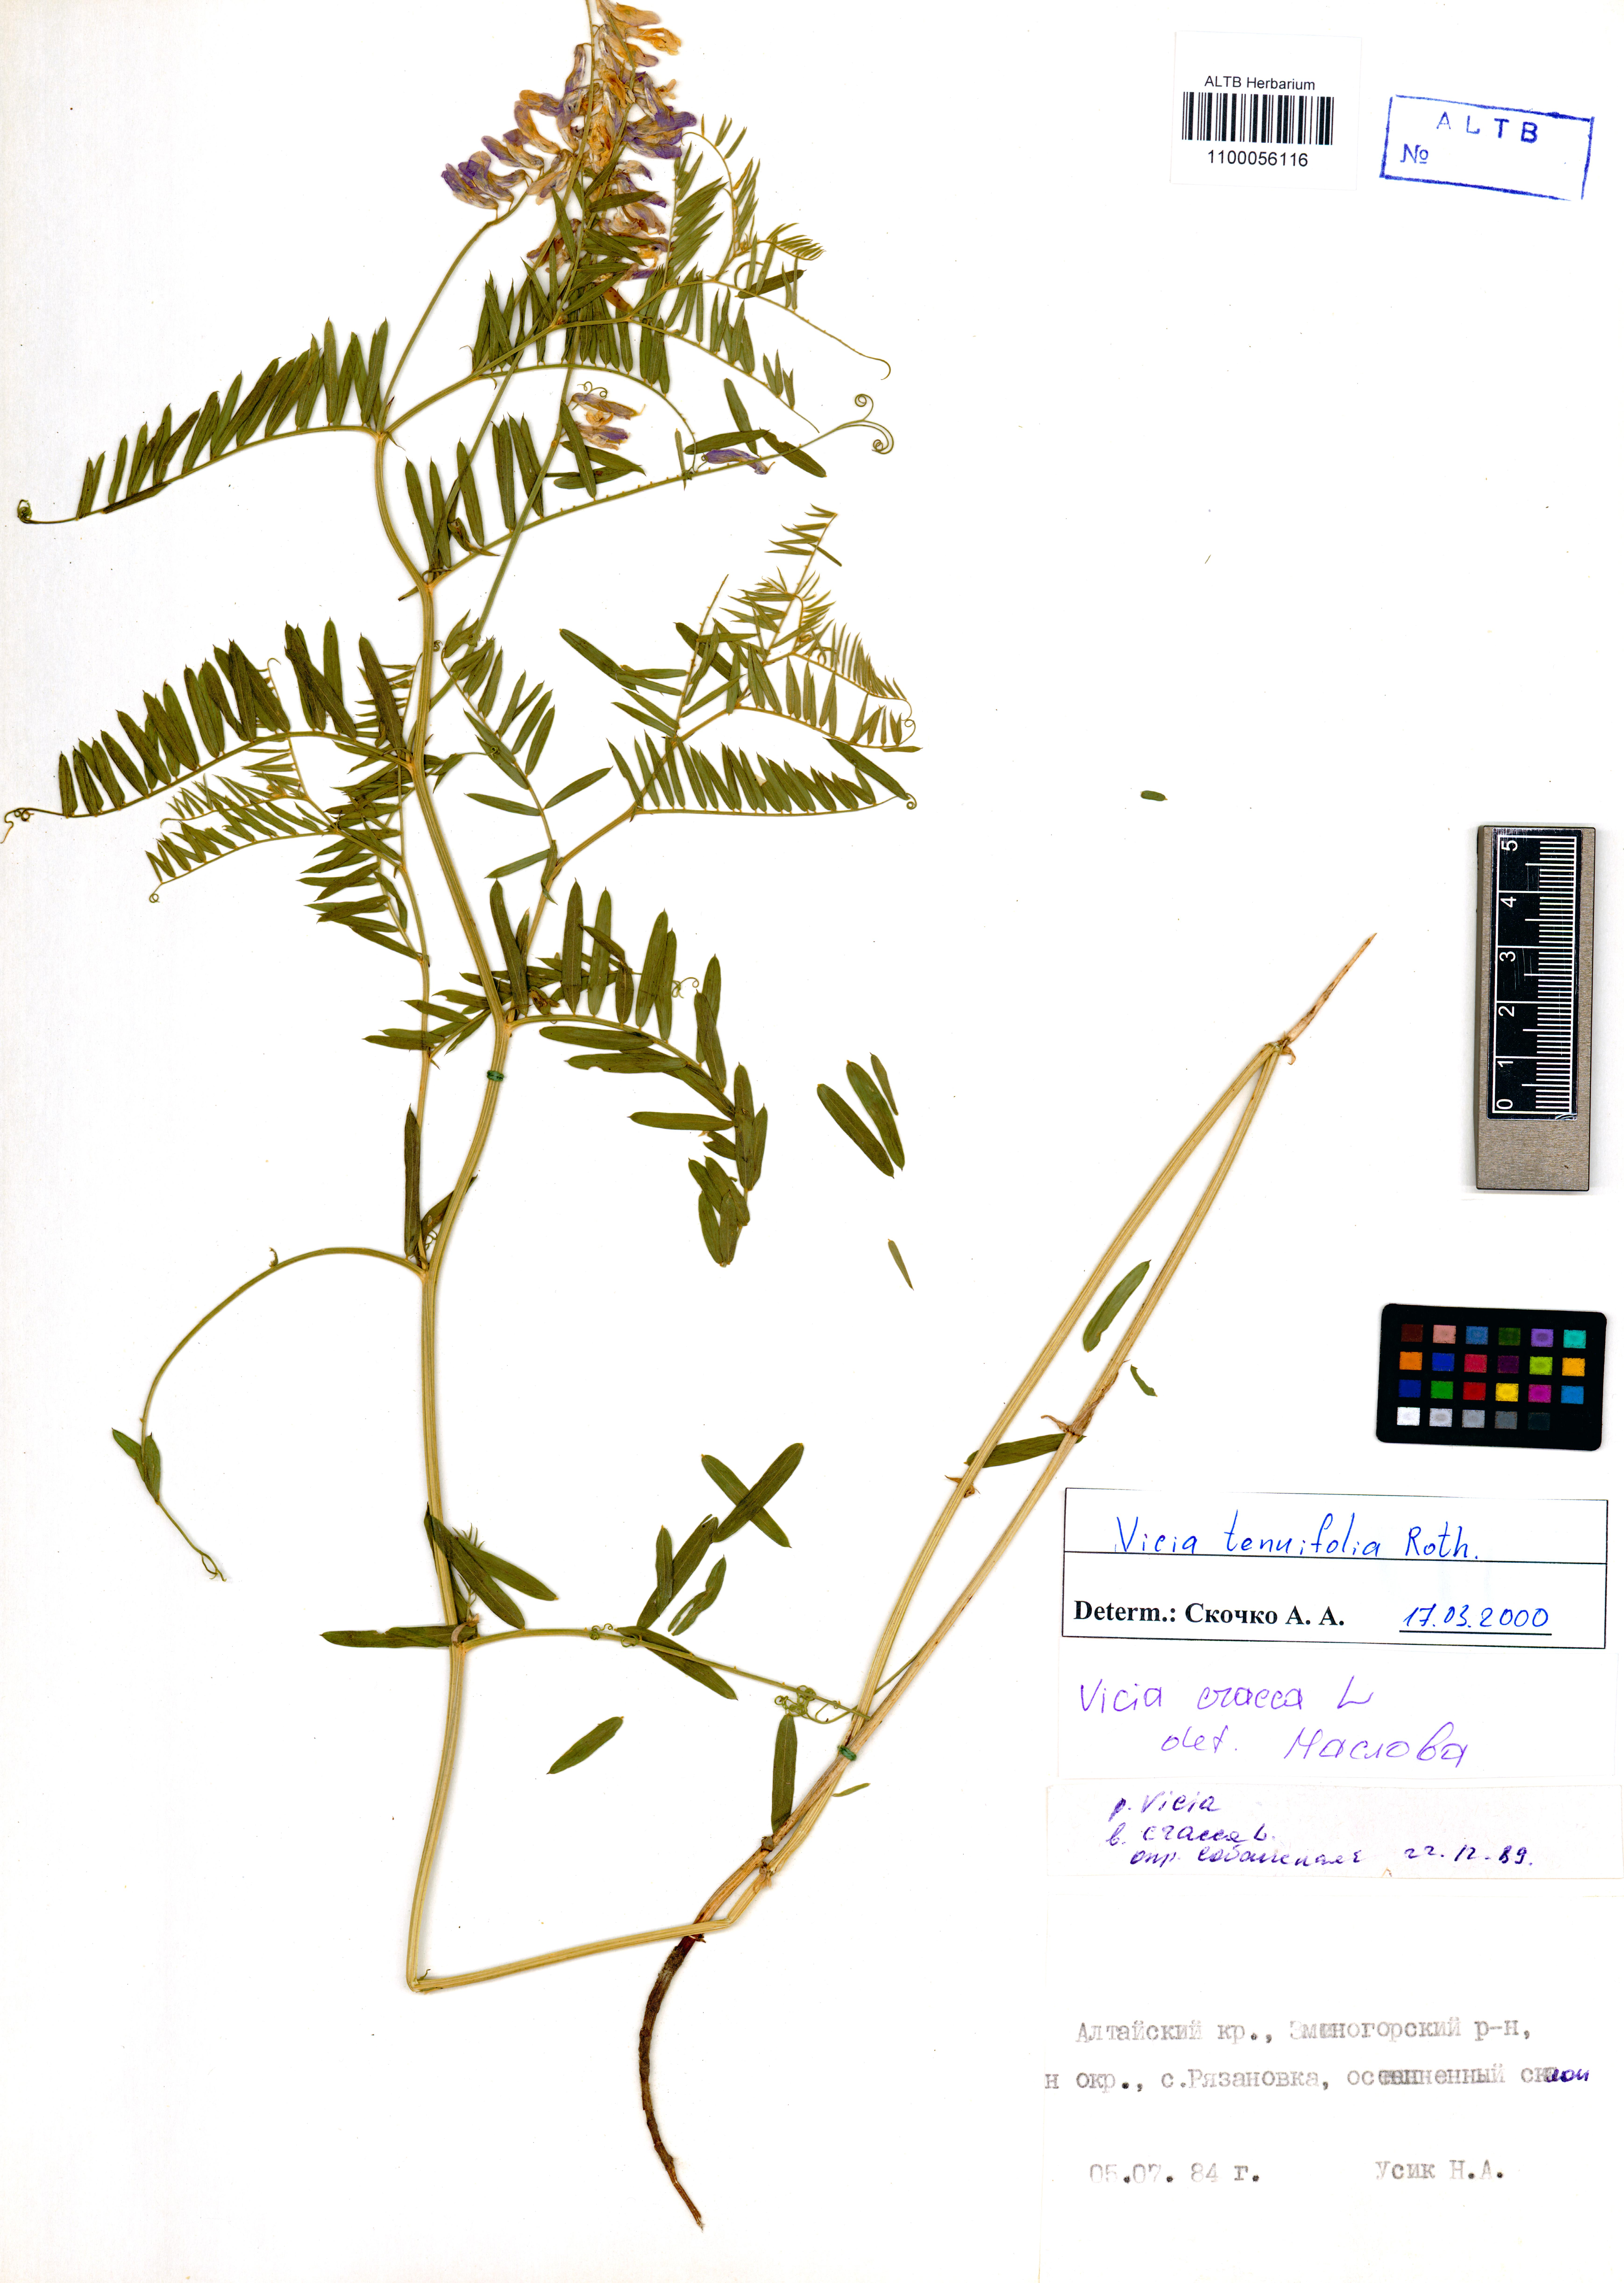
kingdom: Plantae
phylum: Tracheophyta
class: Magnoliopsida
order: Fabales
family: Fabaceae
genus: Vicia
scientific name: Vicia tenuifolia
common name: Fine-leaved vetch
